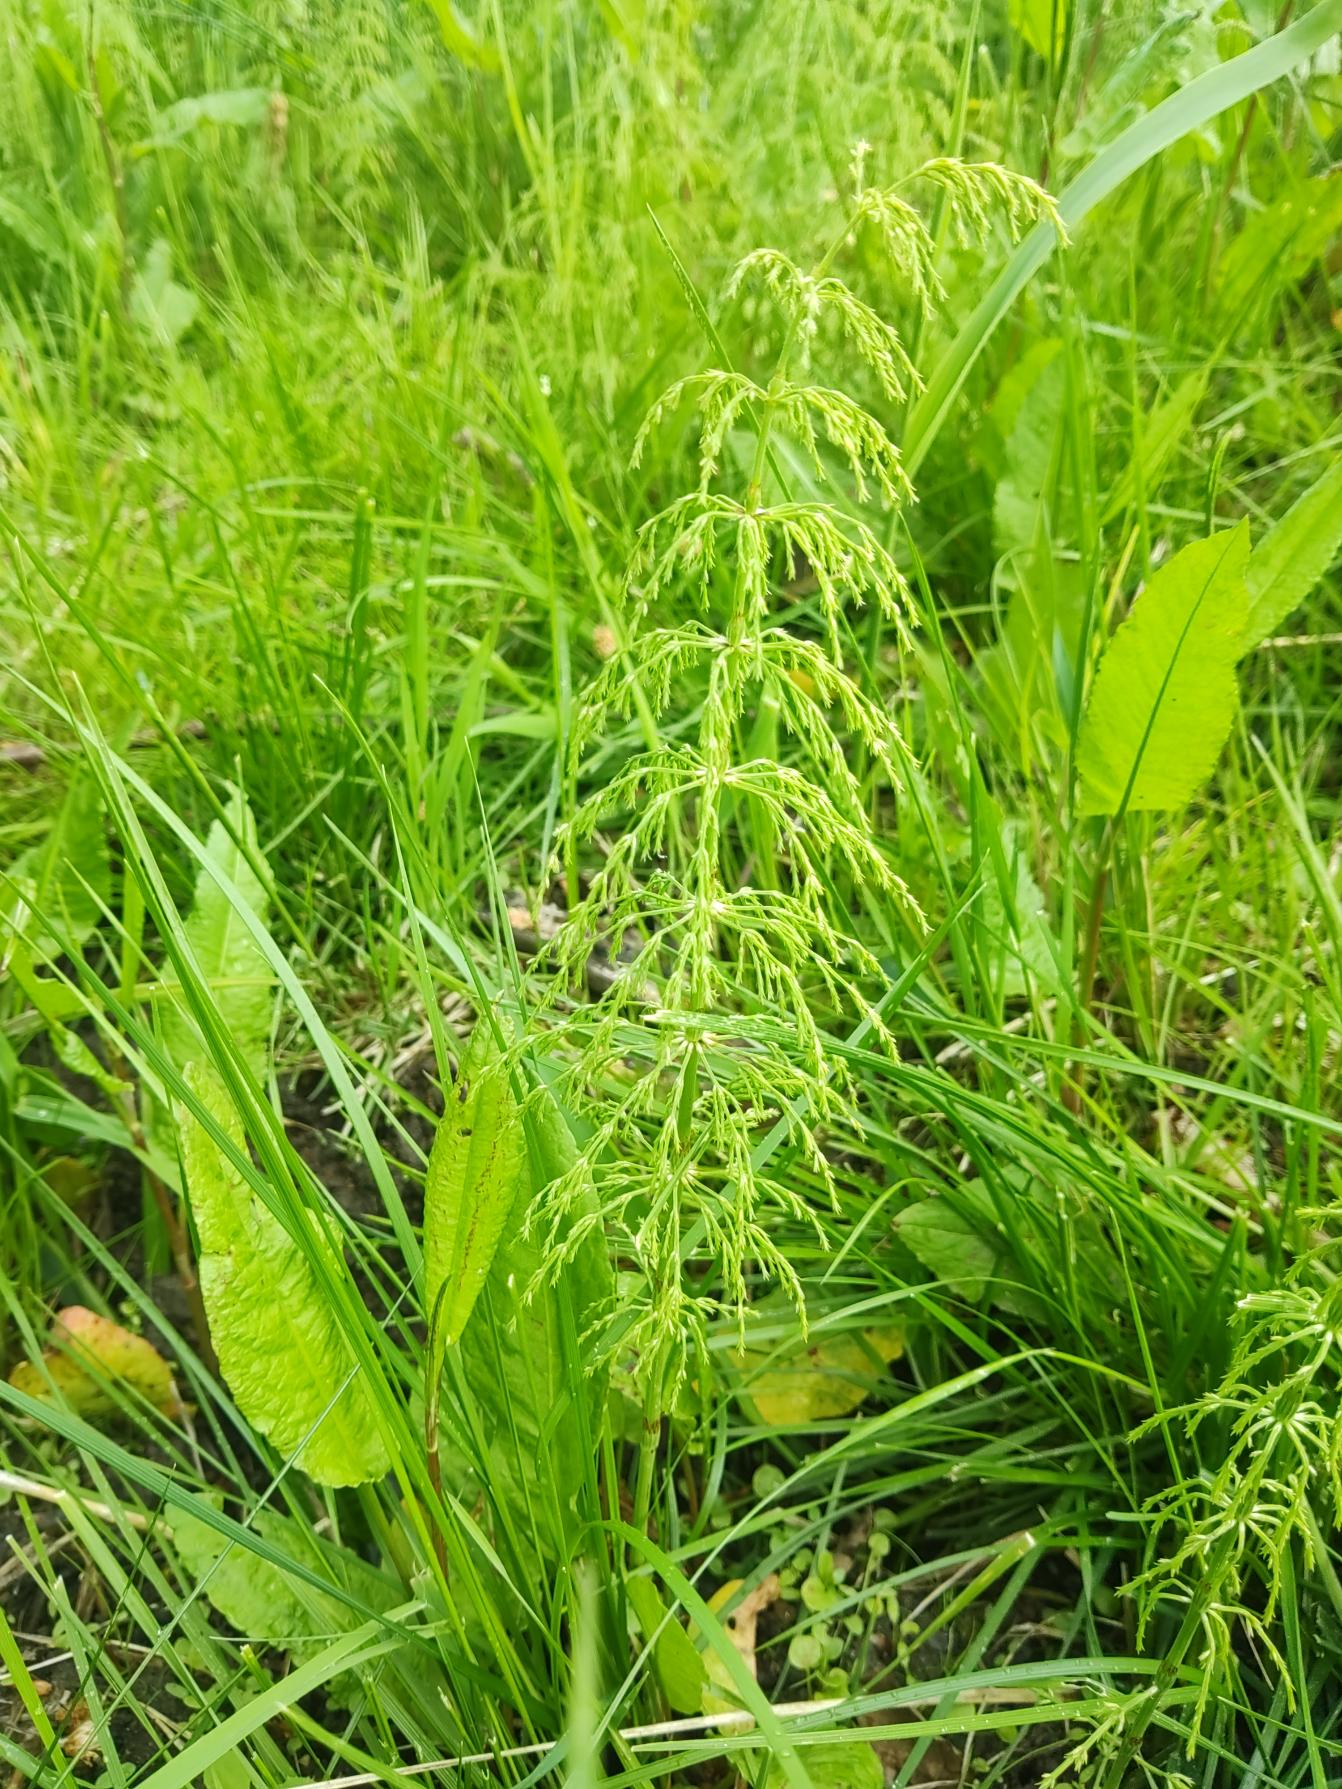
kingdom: Plantae
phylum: Tracheophyta
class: Polypodiopsida
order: Equisetales
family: Equisetaceae
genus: Equisetum
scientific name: Equisetum sylvaticum
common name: Skov-padderok
